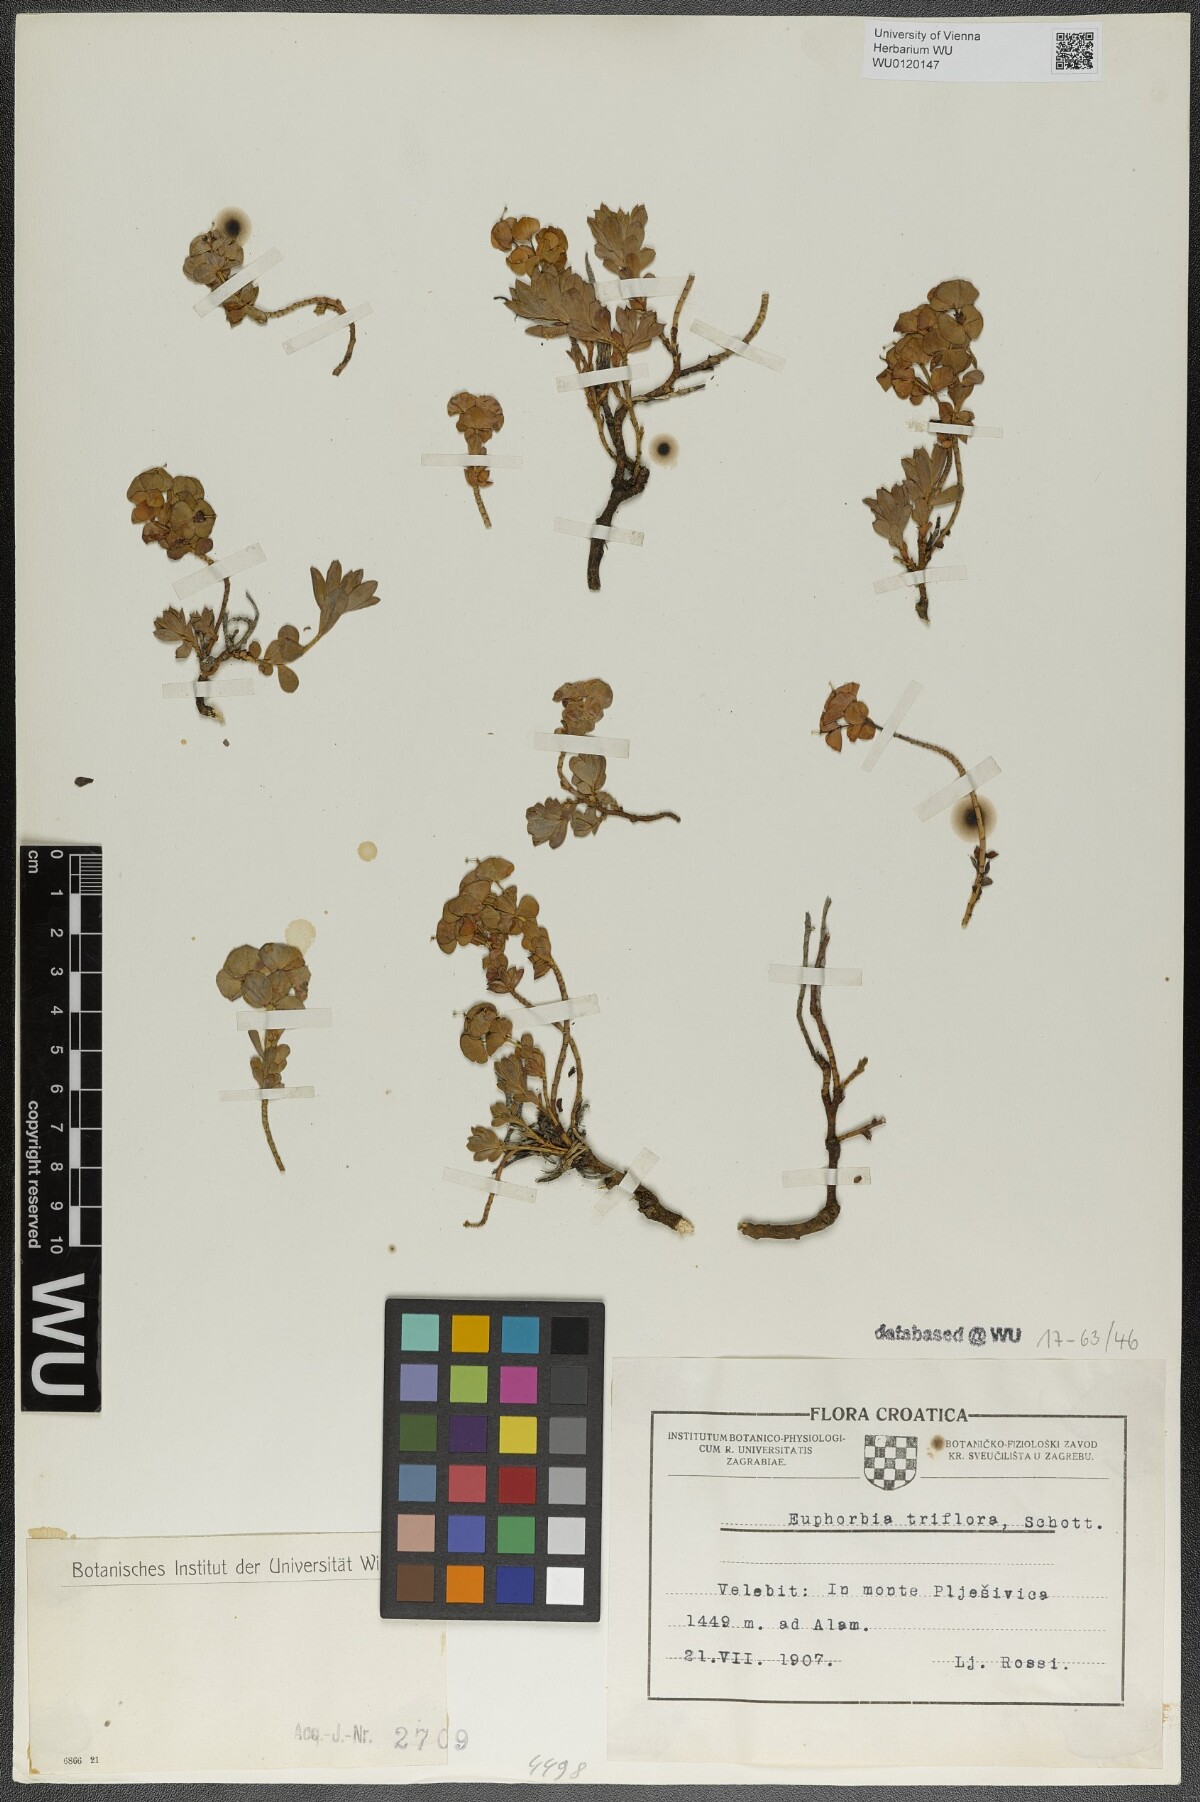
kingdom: Plantae
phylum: Tracheophyta
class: Magnoliopsida
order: Malpighiales
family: Euphorbiaceae
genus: Euphorbia
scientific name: Euphorbia triflora
